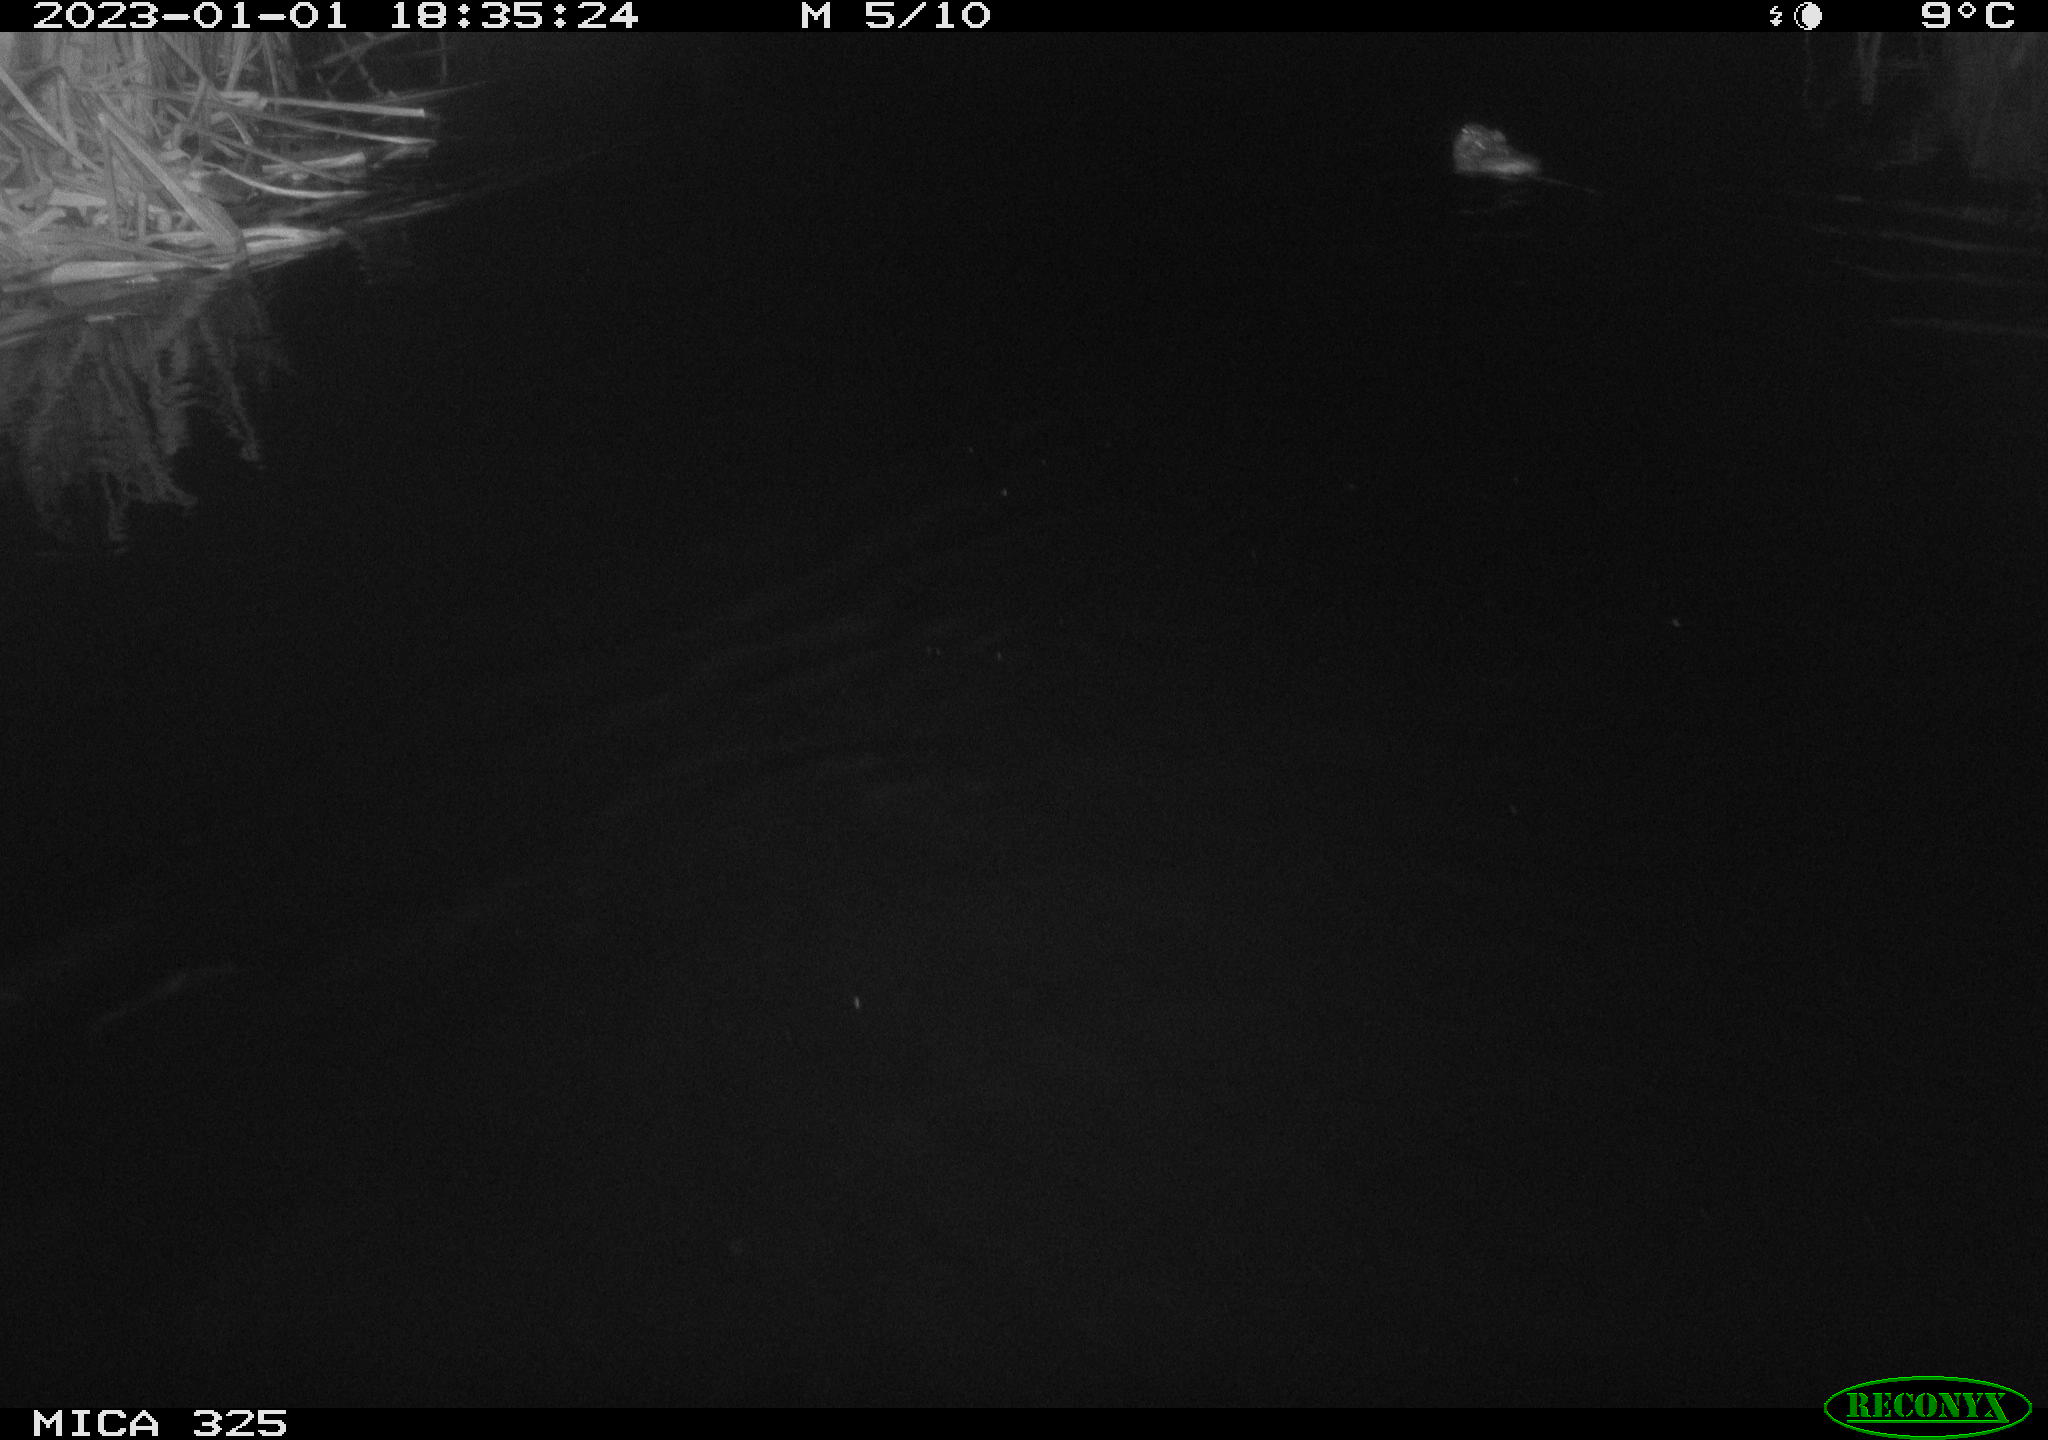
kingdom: Animalia
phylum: Chordata
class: Mammalia
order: Rodentia
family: Cricetidae
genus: Ondatra
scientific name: Ondatra zibethicus
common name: Muskrat
